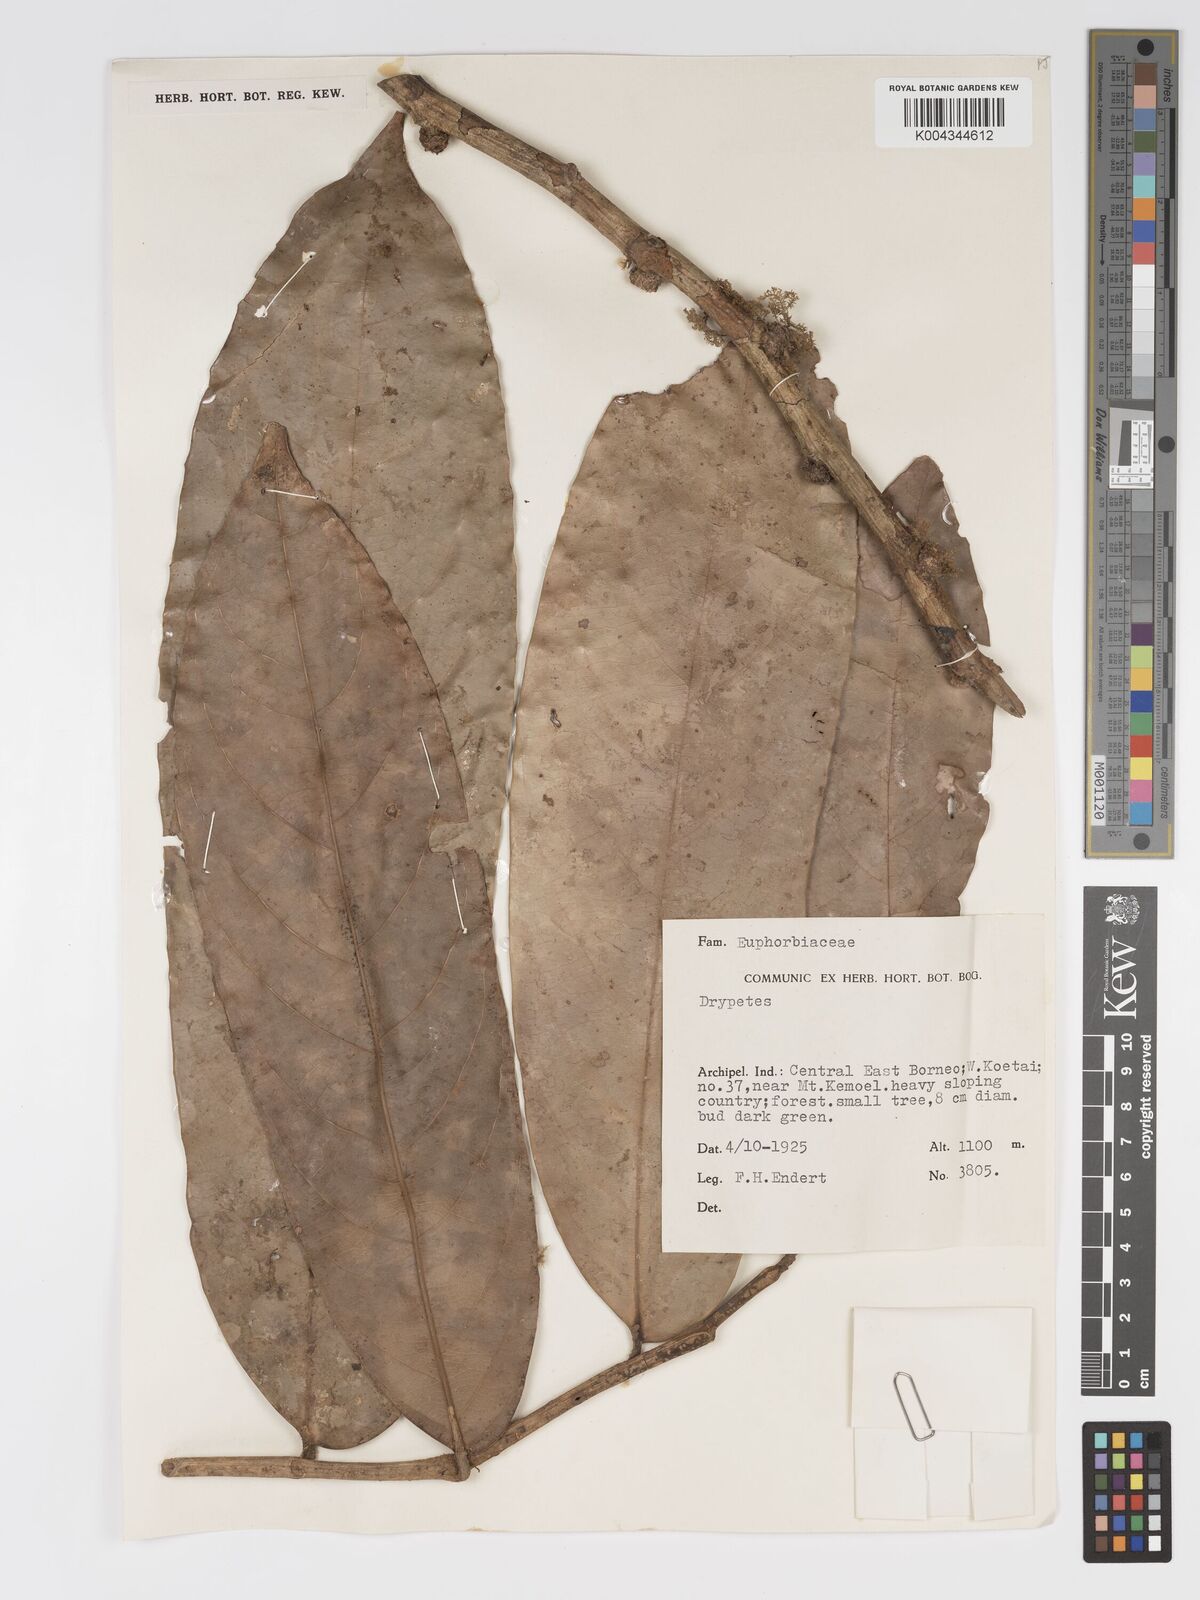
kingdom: Plantae
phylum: Tracheophyta
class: Magnoliopsida
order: Malpighiales
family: Putranjivaceae
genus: Drypetes
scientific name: Drypetes longifolia
